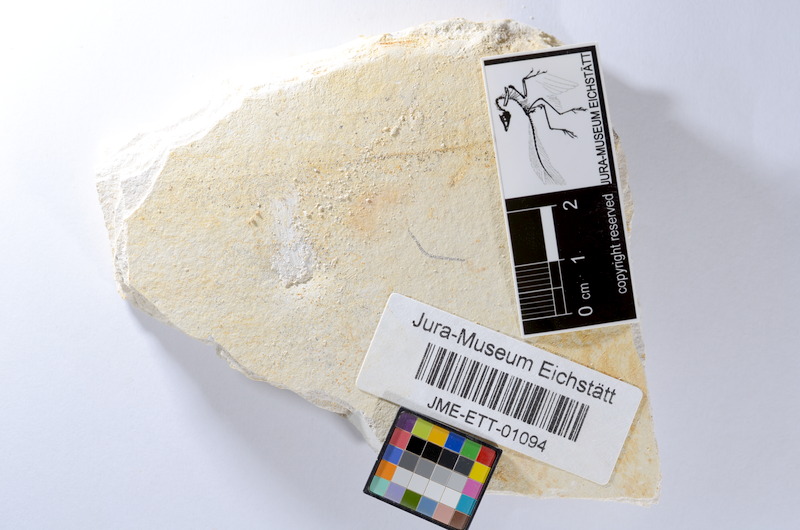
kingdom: Animalia
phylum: Chordata
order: Salmoniformes
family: Orthogonikleithridae
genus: Orthogonikleithrus
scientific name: Orthogonikleithrus hoelli
